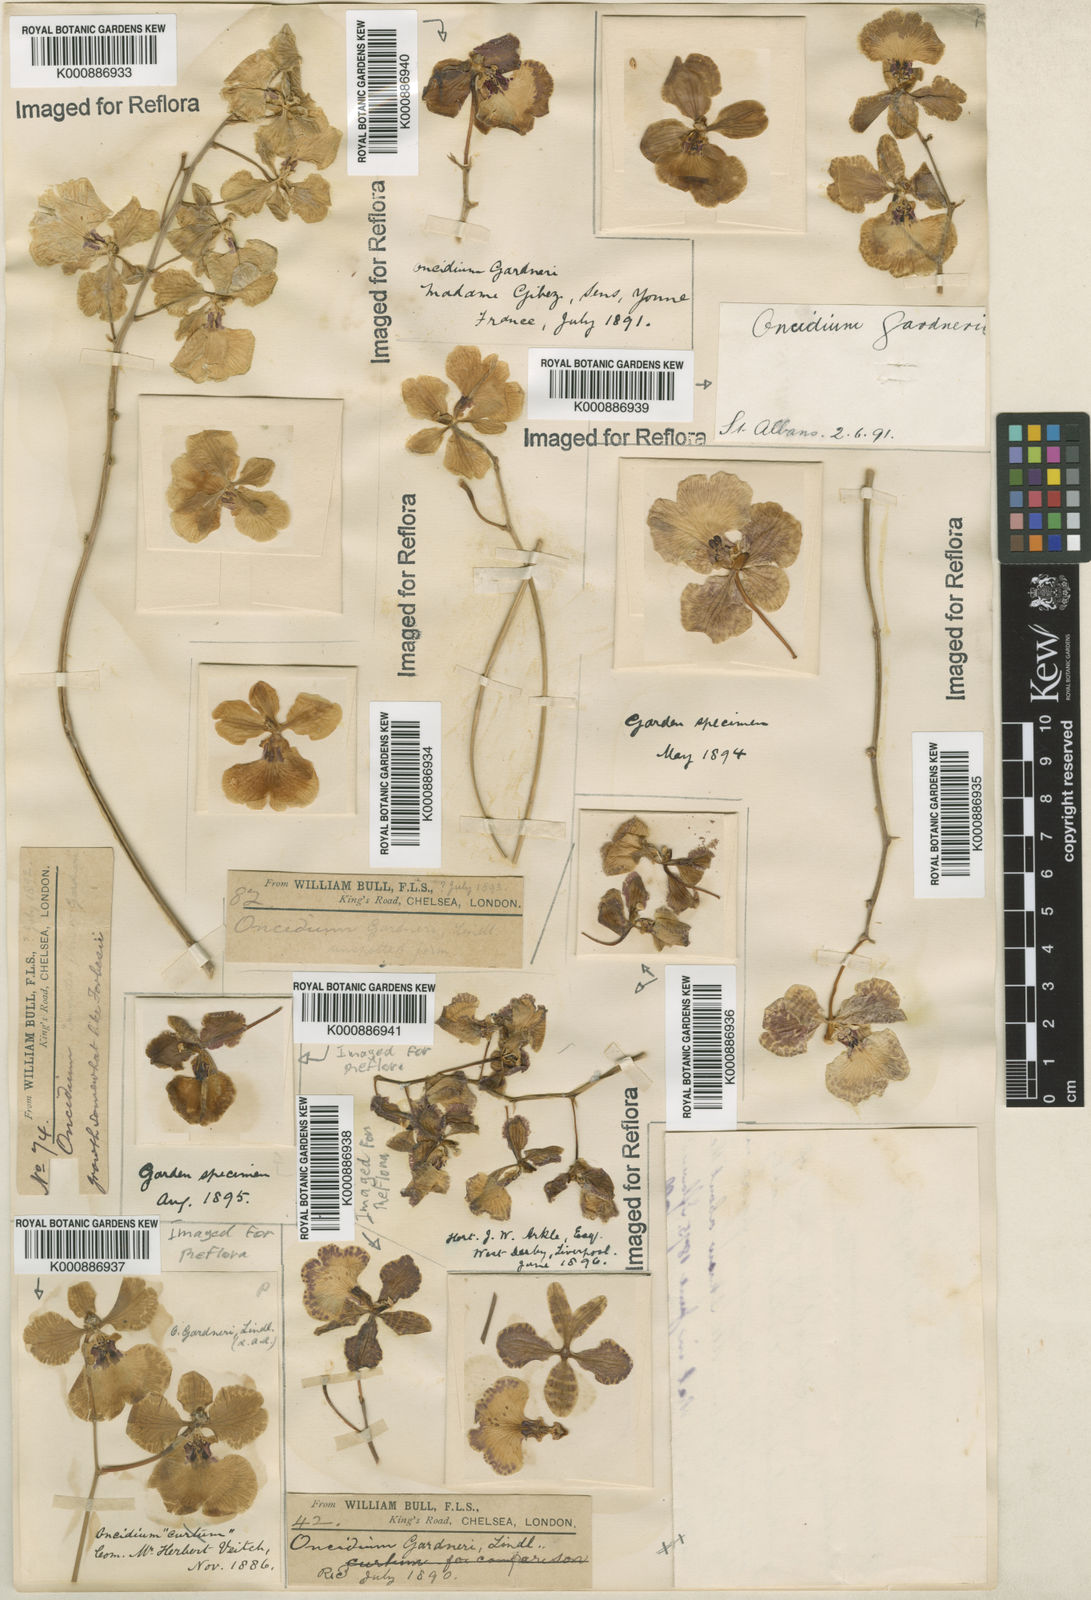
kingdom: Plantae
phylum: Tracheophyta
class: Liliopsida
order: Asparagales
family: Orchidaceae
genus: Gomesa
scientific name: Gomesa gardneri
